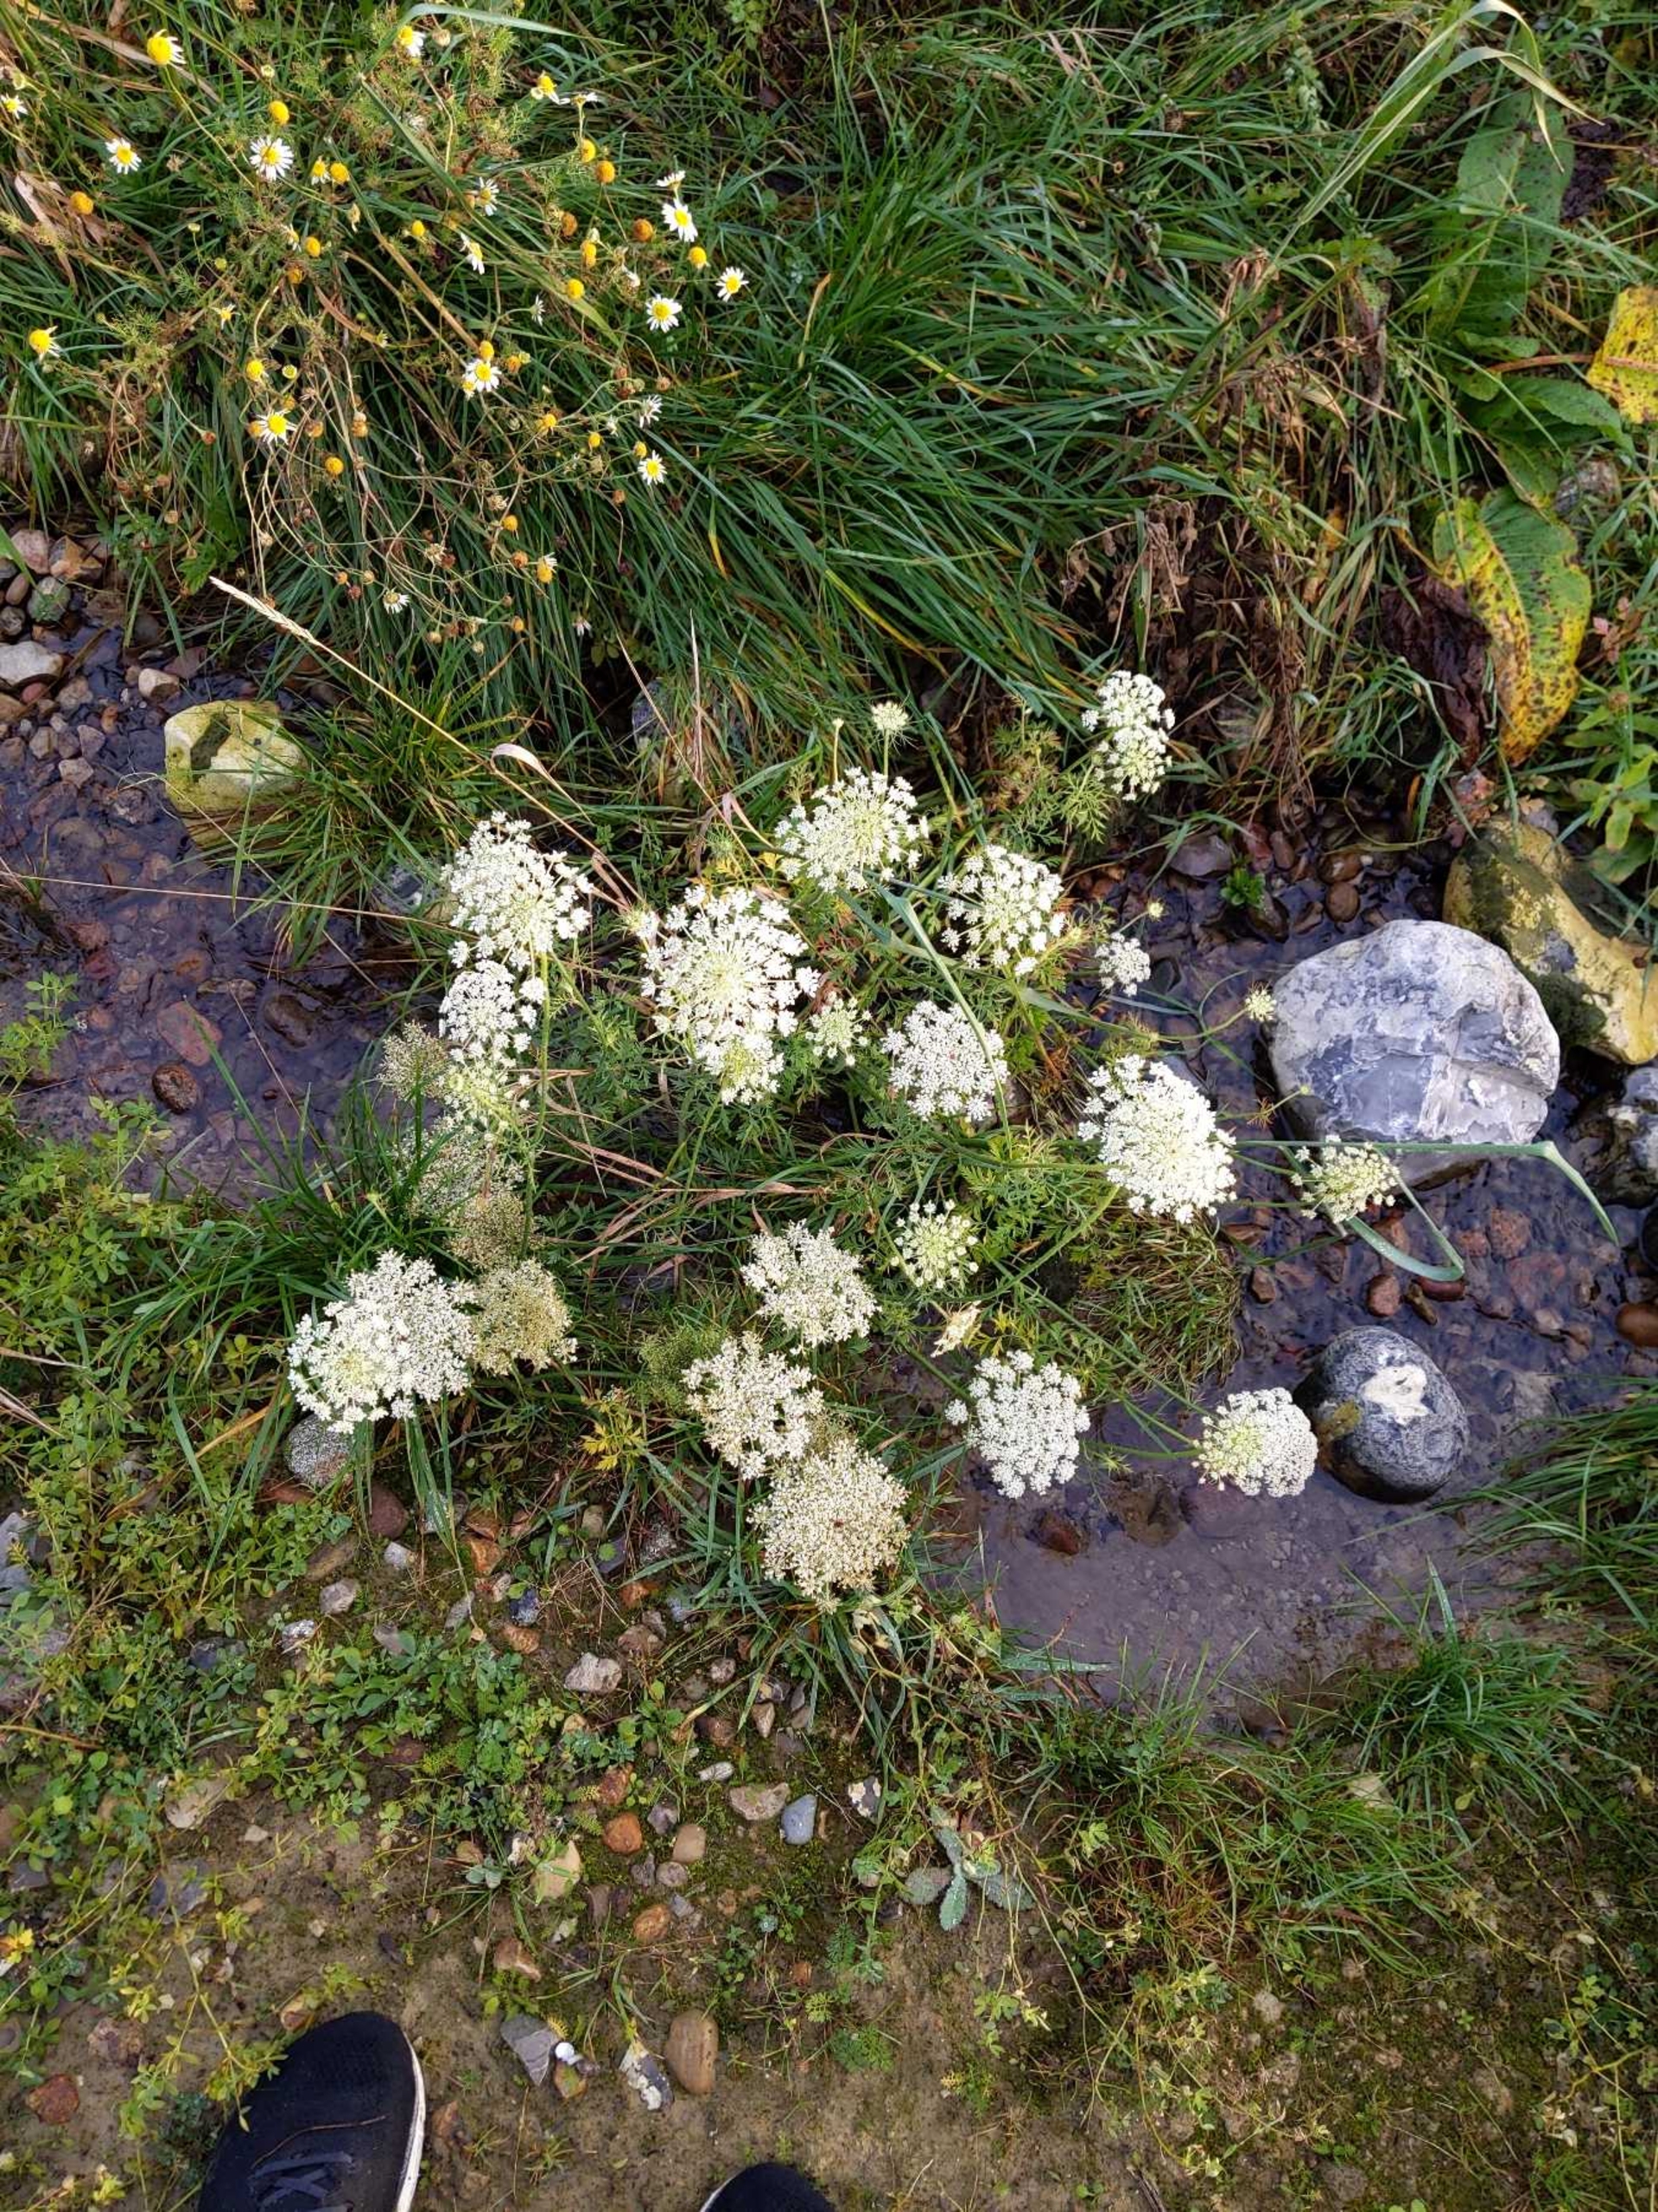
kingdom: Plantae
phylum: Tracheophyta
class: Magnoliopsida
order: Apiales
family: Apiaceae
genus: Daucus
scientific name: Daucus carota
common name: Vild gulerod
